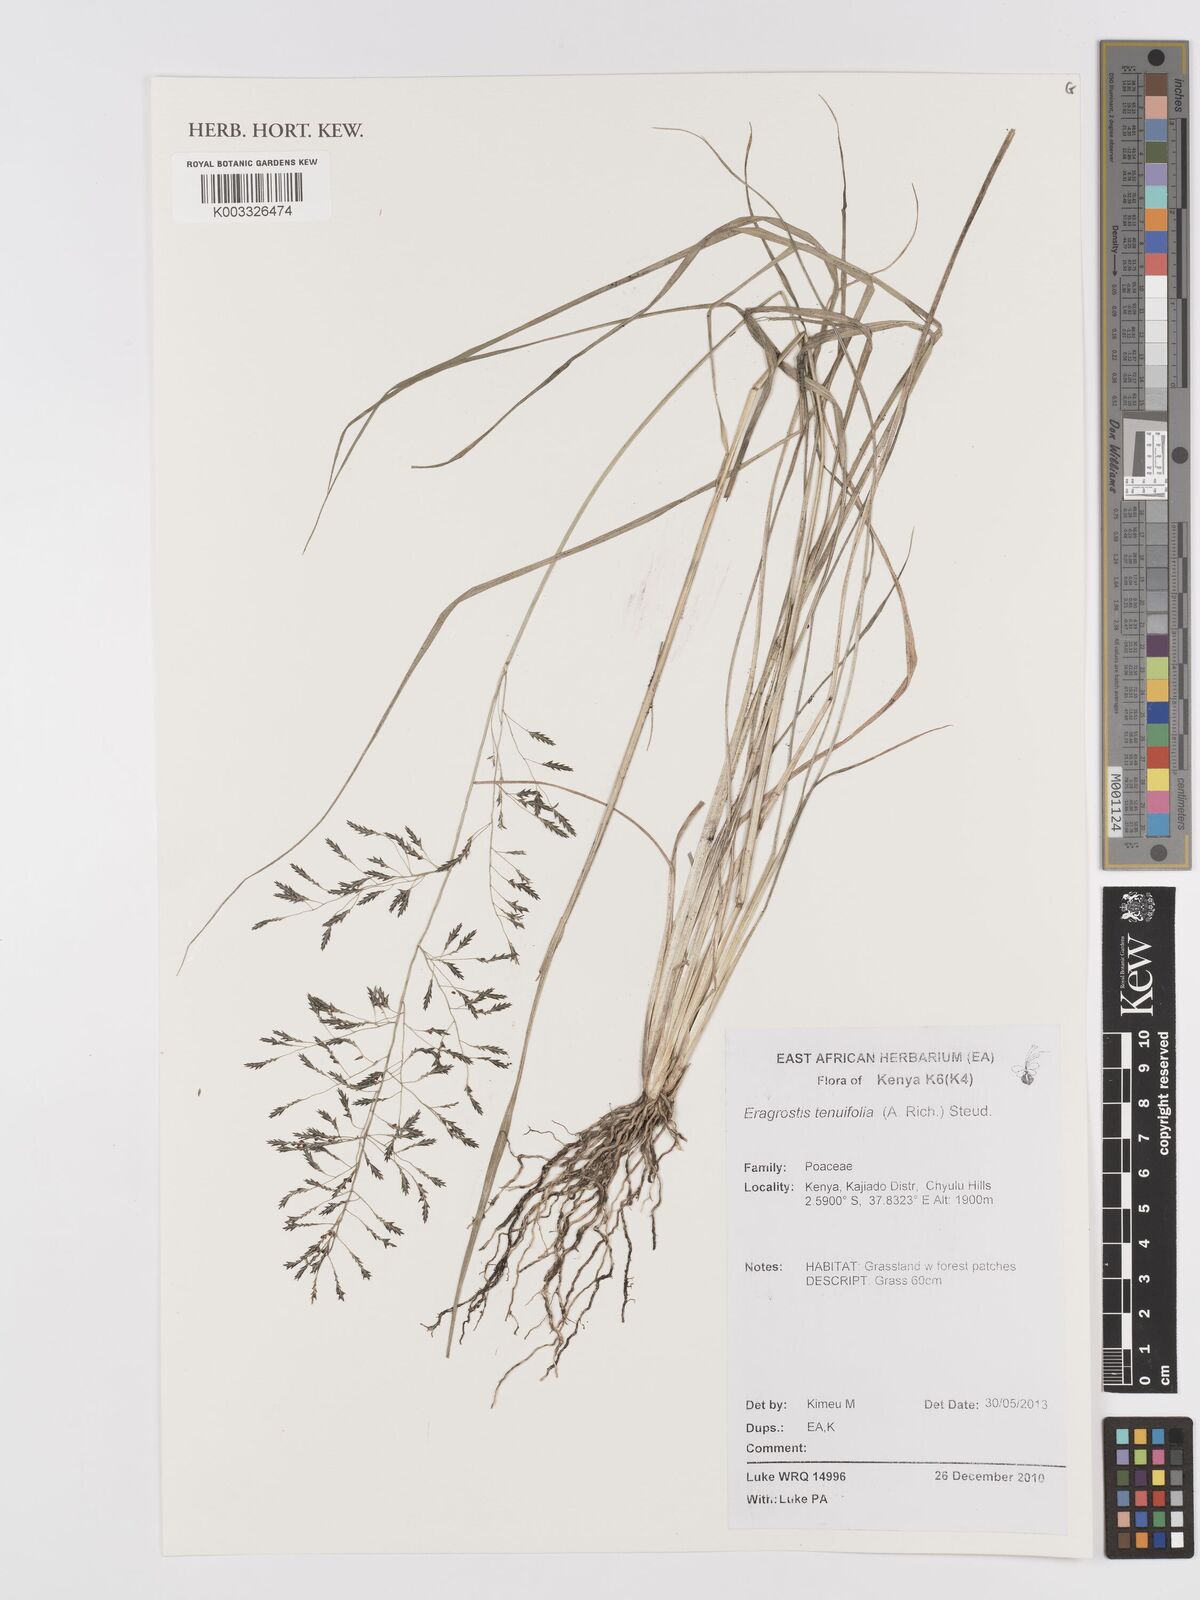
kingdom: Plantae
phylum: Tracheophyta
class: Liliopsida
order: Poales
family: Poaceae
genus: Eragrostis
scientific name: Eragrostis tenuifolia
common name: Elastic grass
